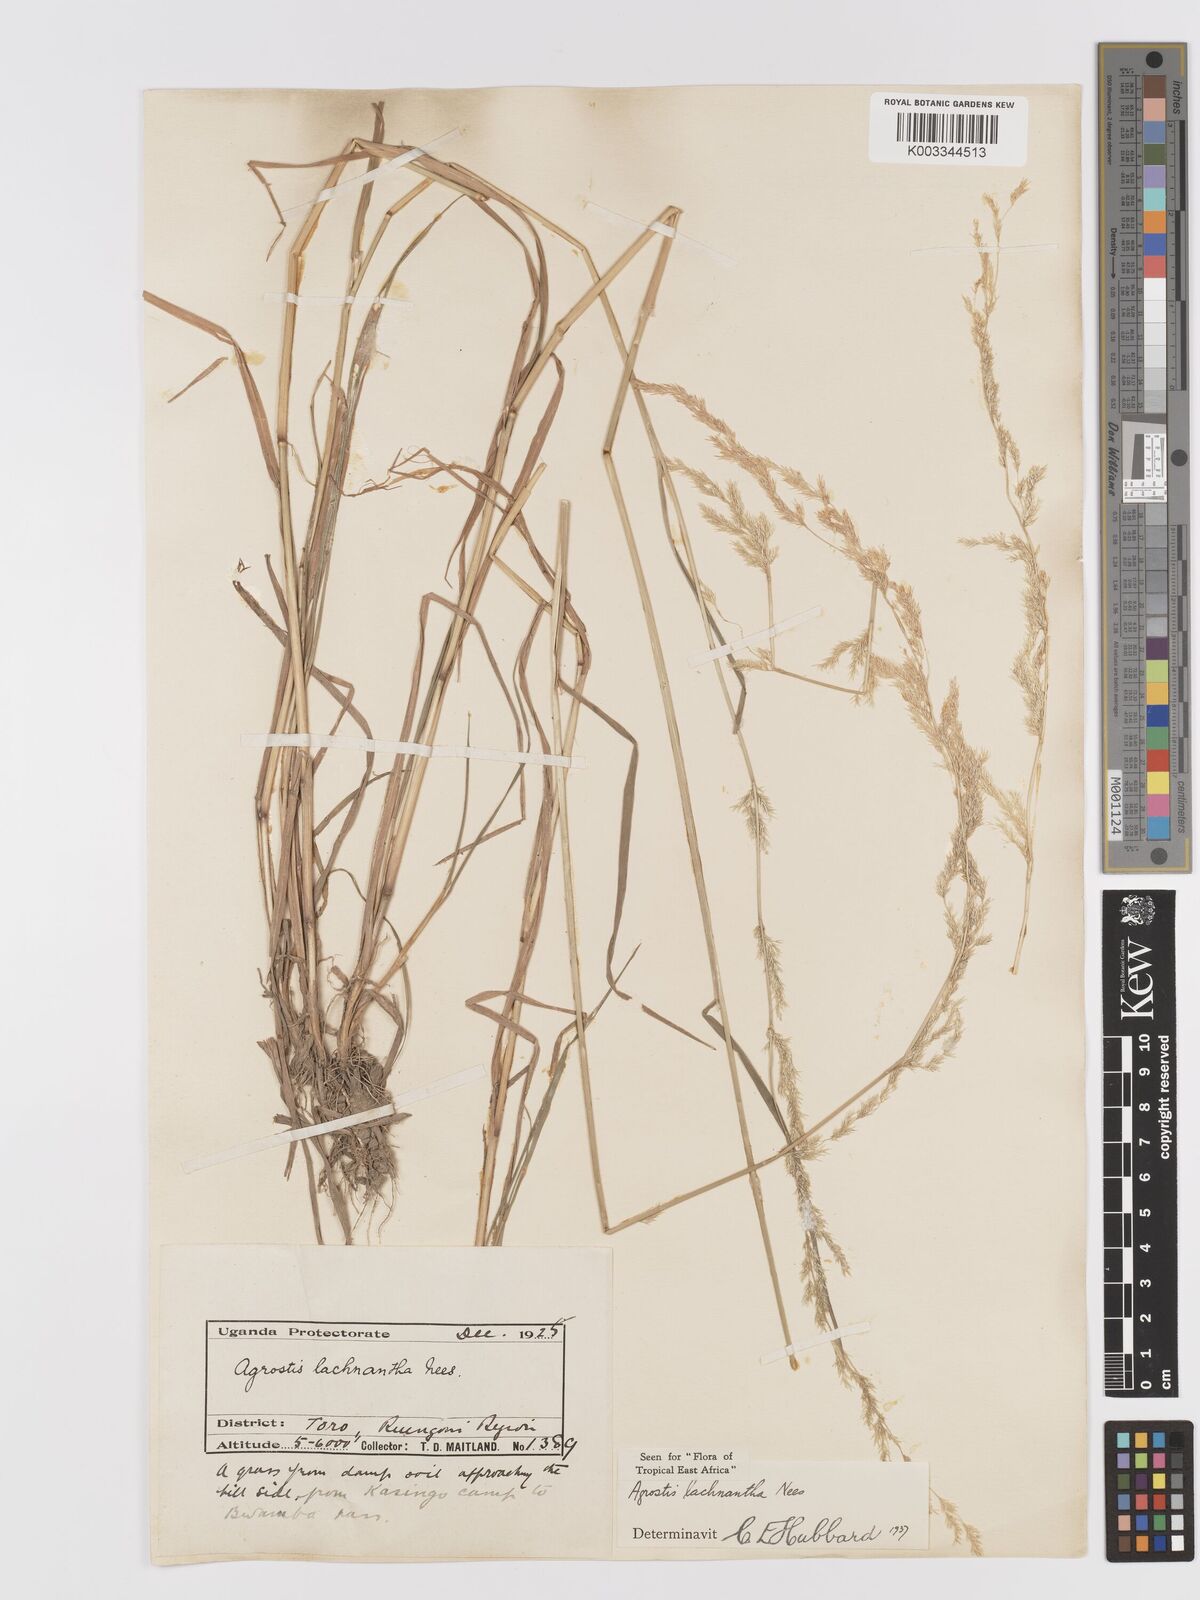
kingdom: Plantae
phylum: Tracheophyta
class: Liliopsida
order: Poales
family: Poaceae
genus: Lachnagrostis
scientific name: Lachnagrostis lachnantha
